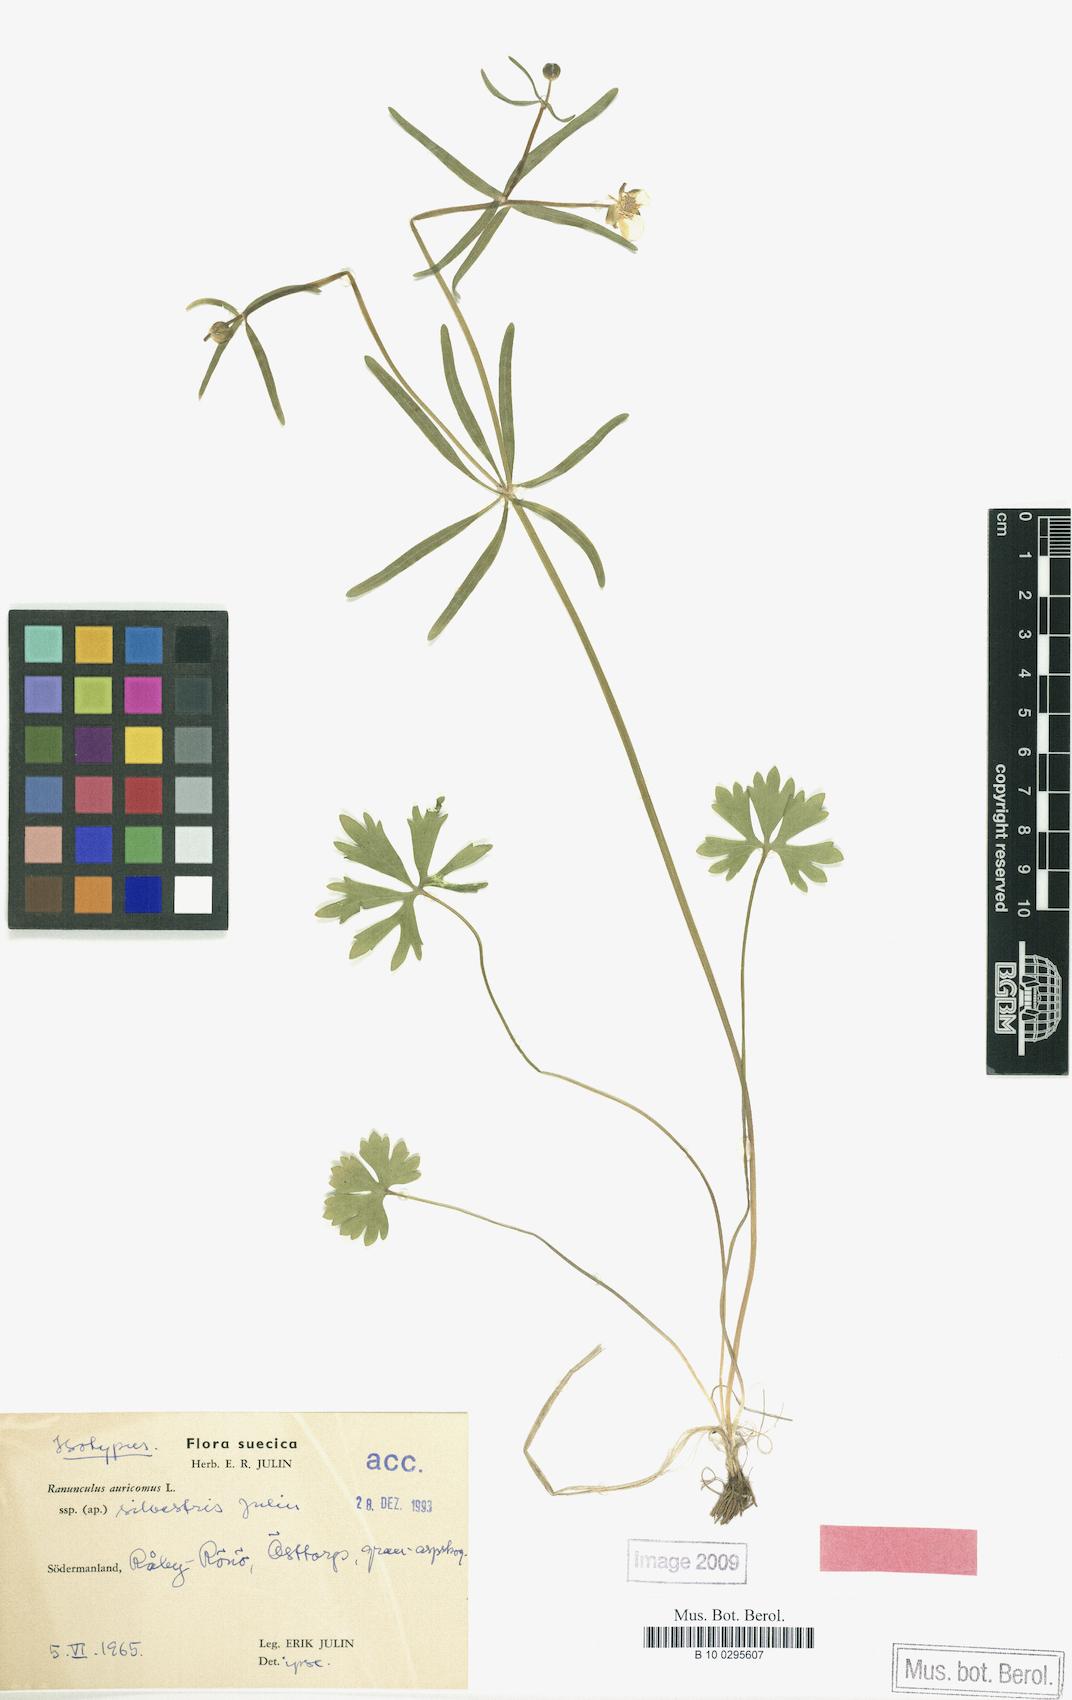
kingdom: Plantae
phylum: Tracheophyta
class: Magnoliopsida
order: Ranunculales
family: Ranunculaceae
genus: Ranunculus
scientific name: Ranunculus silvestris
